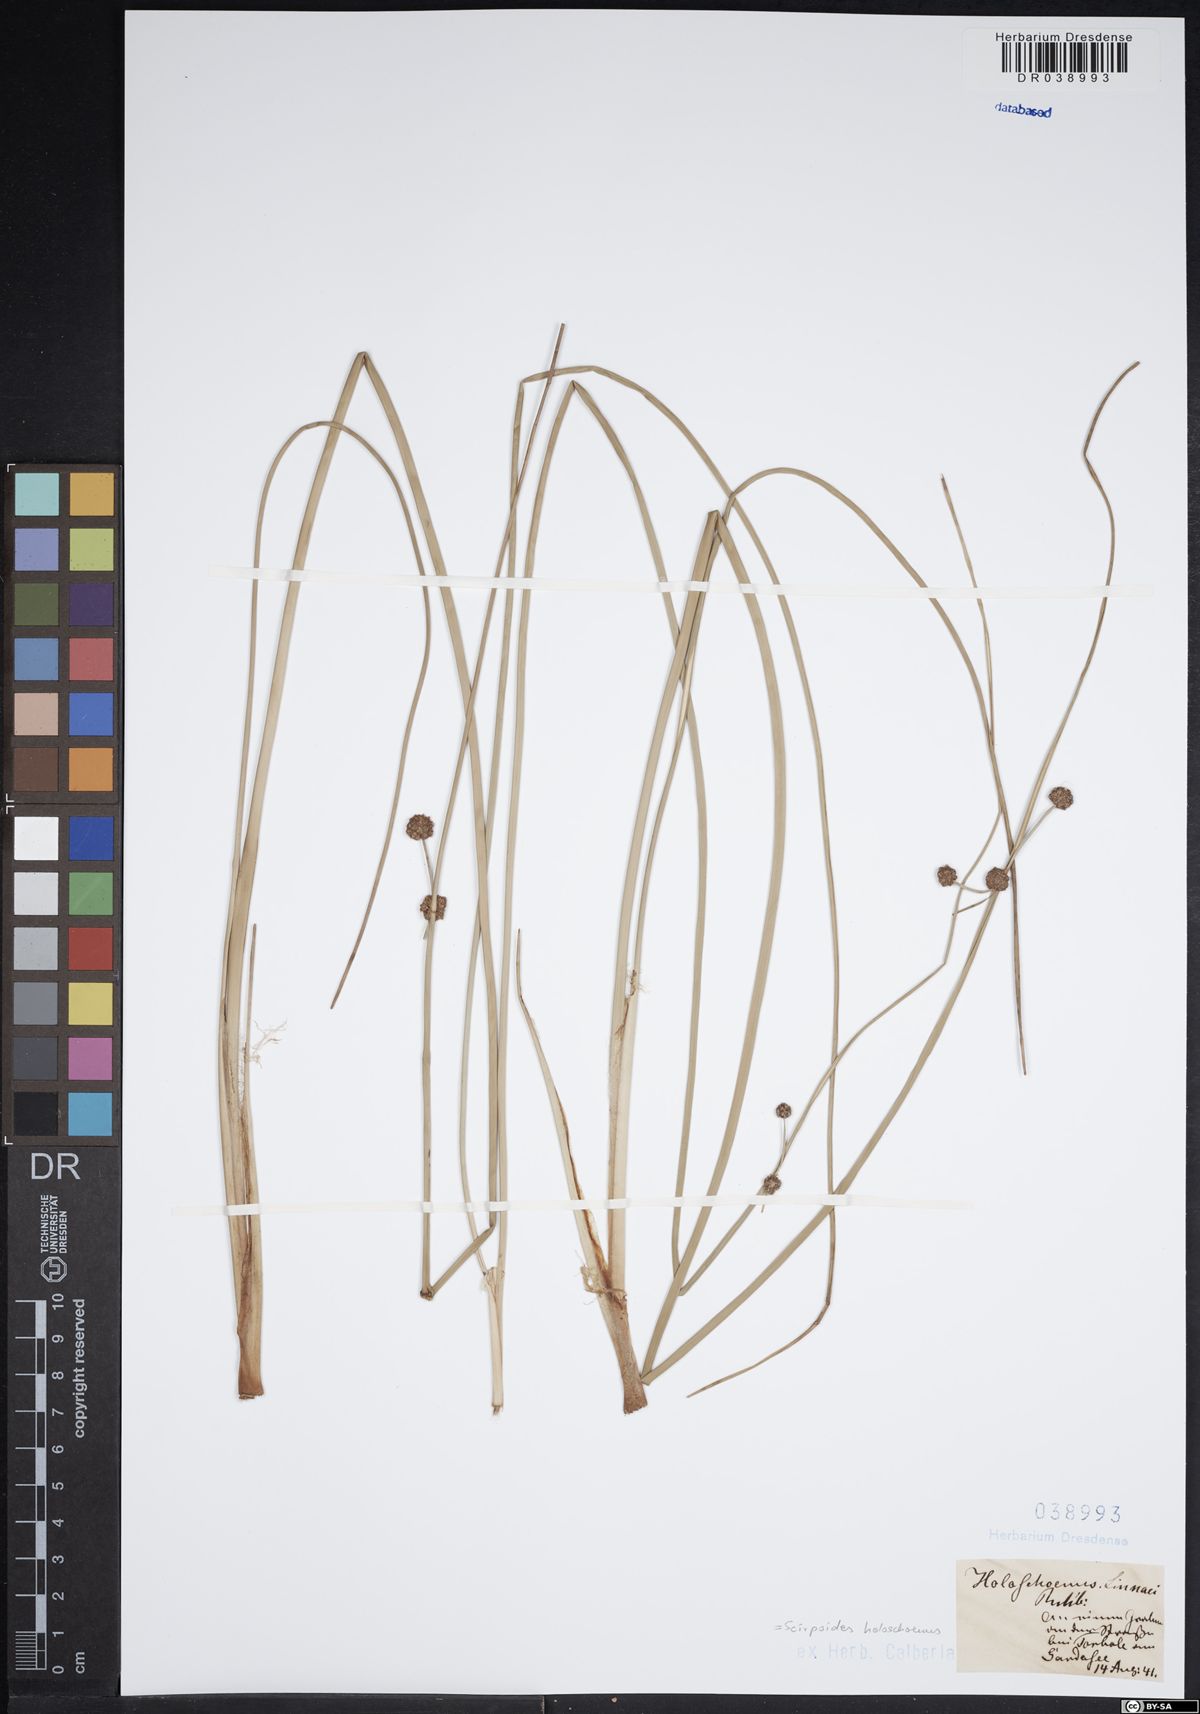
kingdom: Plantae
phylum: Tracheophyta
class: Liliopsida
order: Poales
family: Cyperaceae
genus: Scirpoides
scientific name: Scirpoides holoschoenus
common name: Round-headed club-rush
